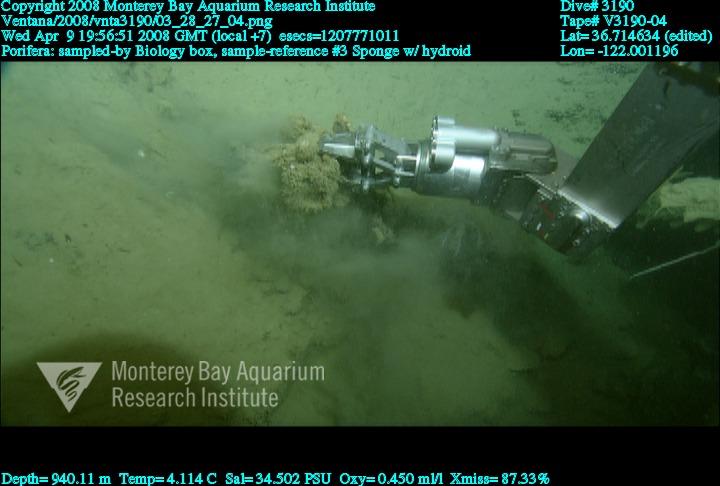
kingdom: Animalia
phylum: Porifera
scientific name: Porifera
